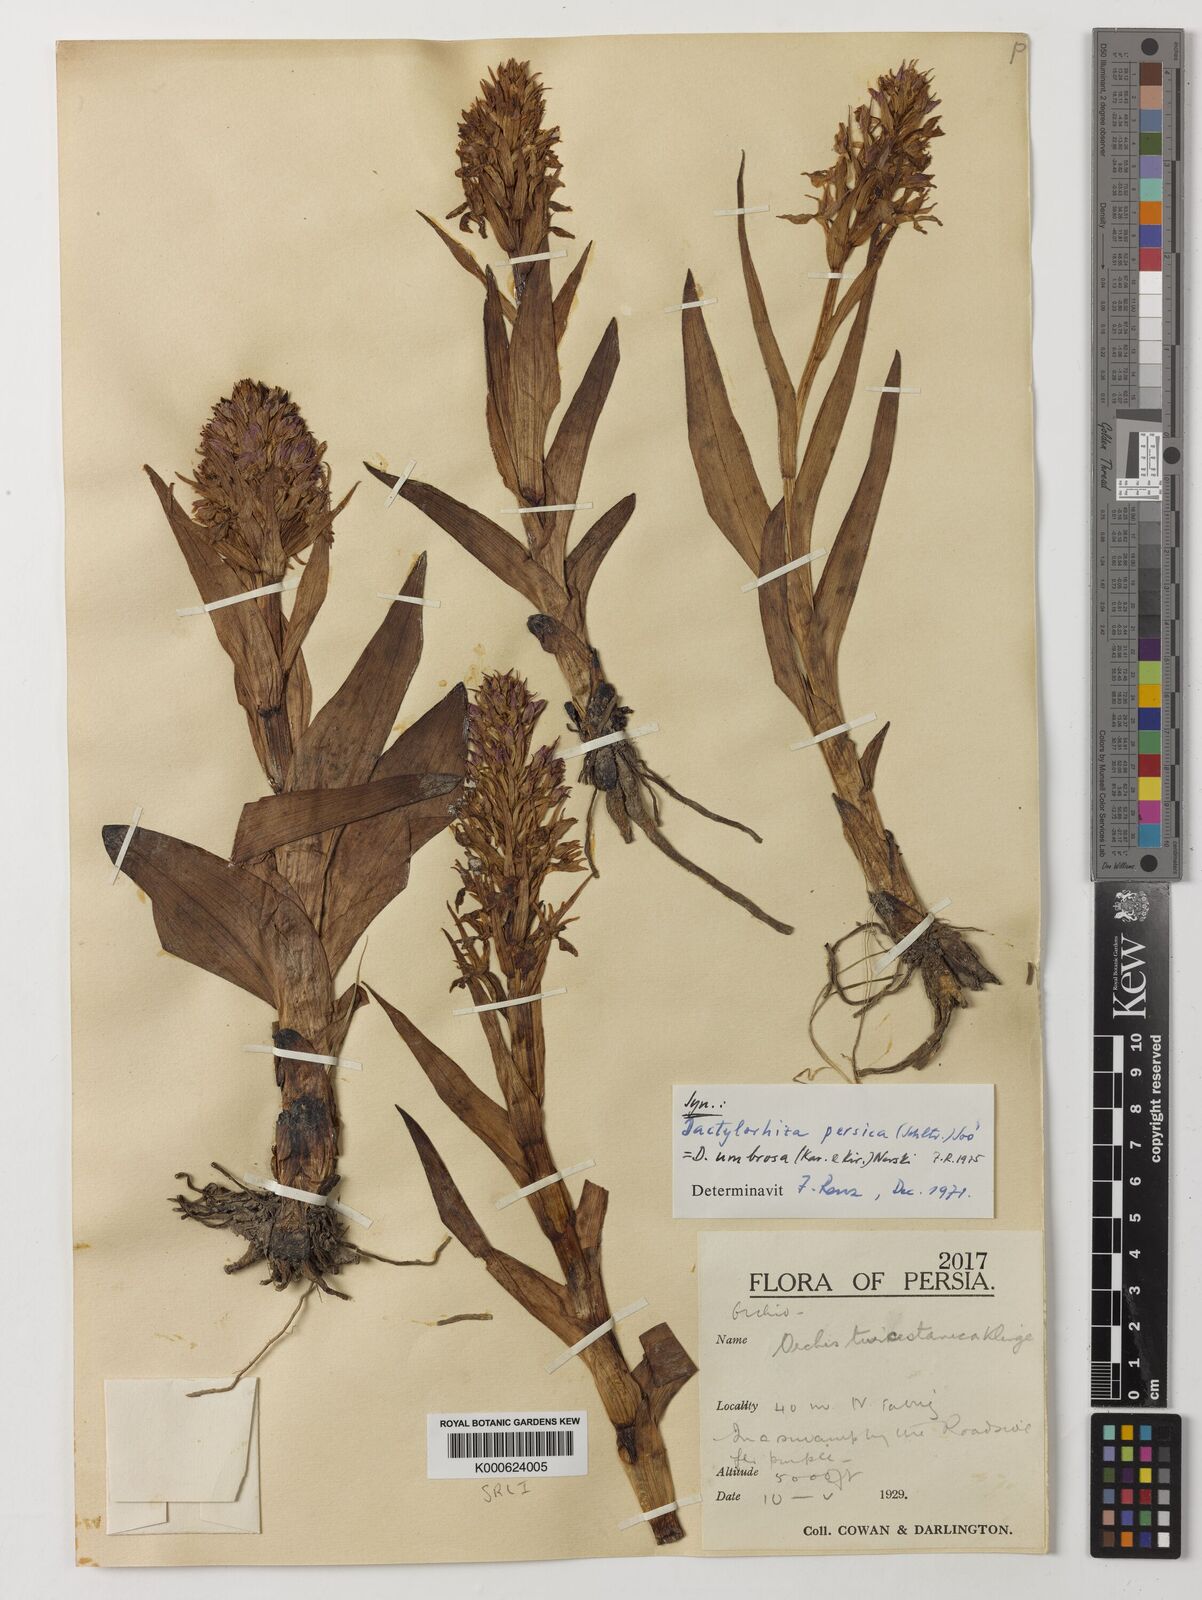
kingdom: Plantae
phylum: Tracheophyta
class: Liliopsida
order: Asparagales
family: Orchidaceae
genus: Dactylorhiza
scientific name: Dactylorhiza
